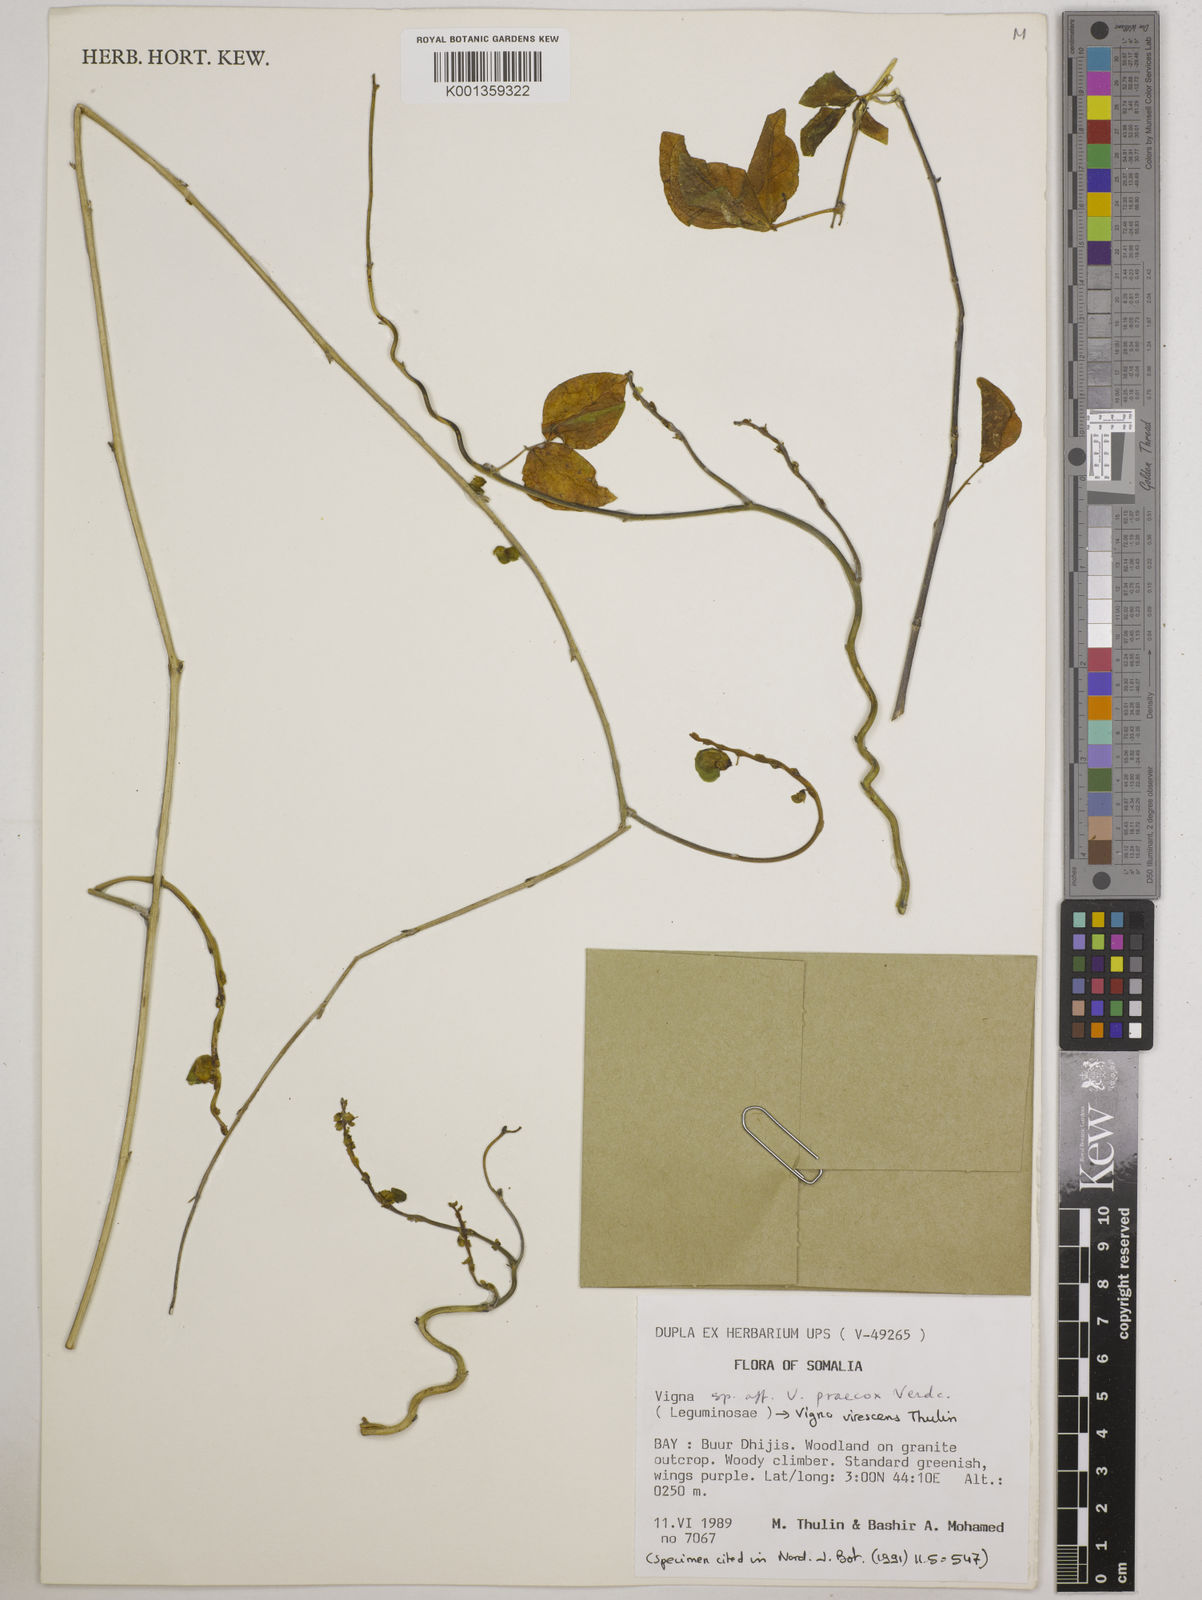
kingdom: Plantae
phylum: Tracheophyta
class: Magnoliopsida
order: Fabales
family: Fabaceae
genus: Wajira
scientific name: Wajira virescens
